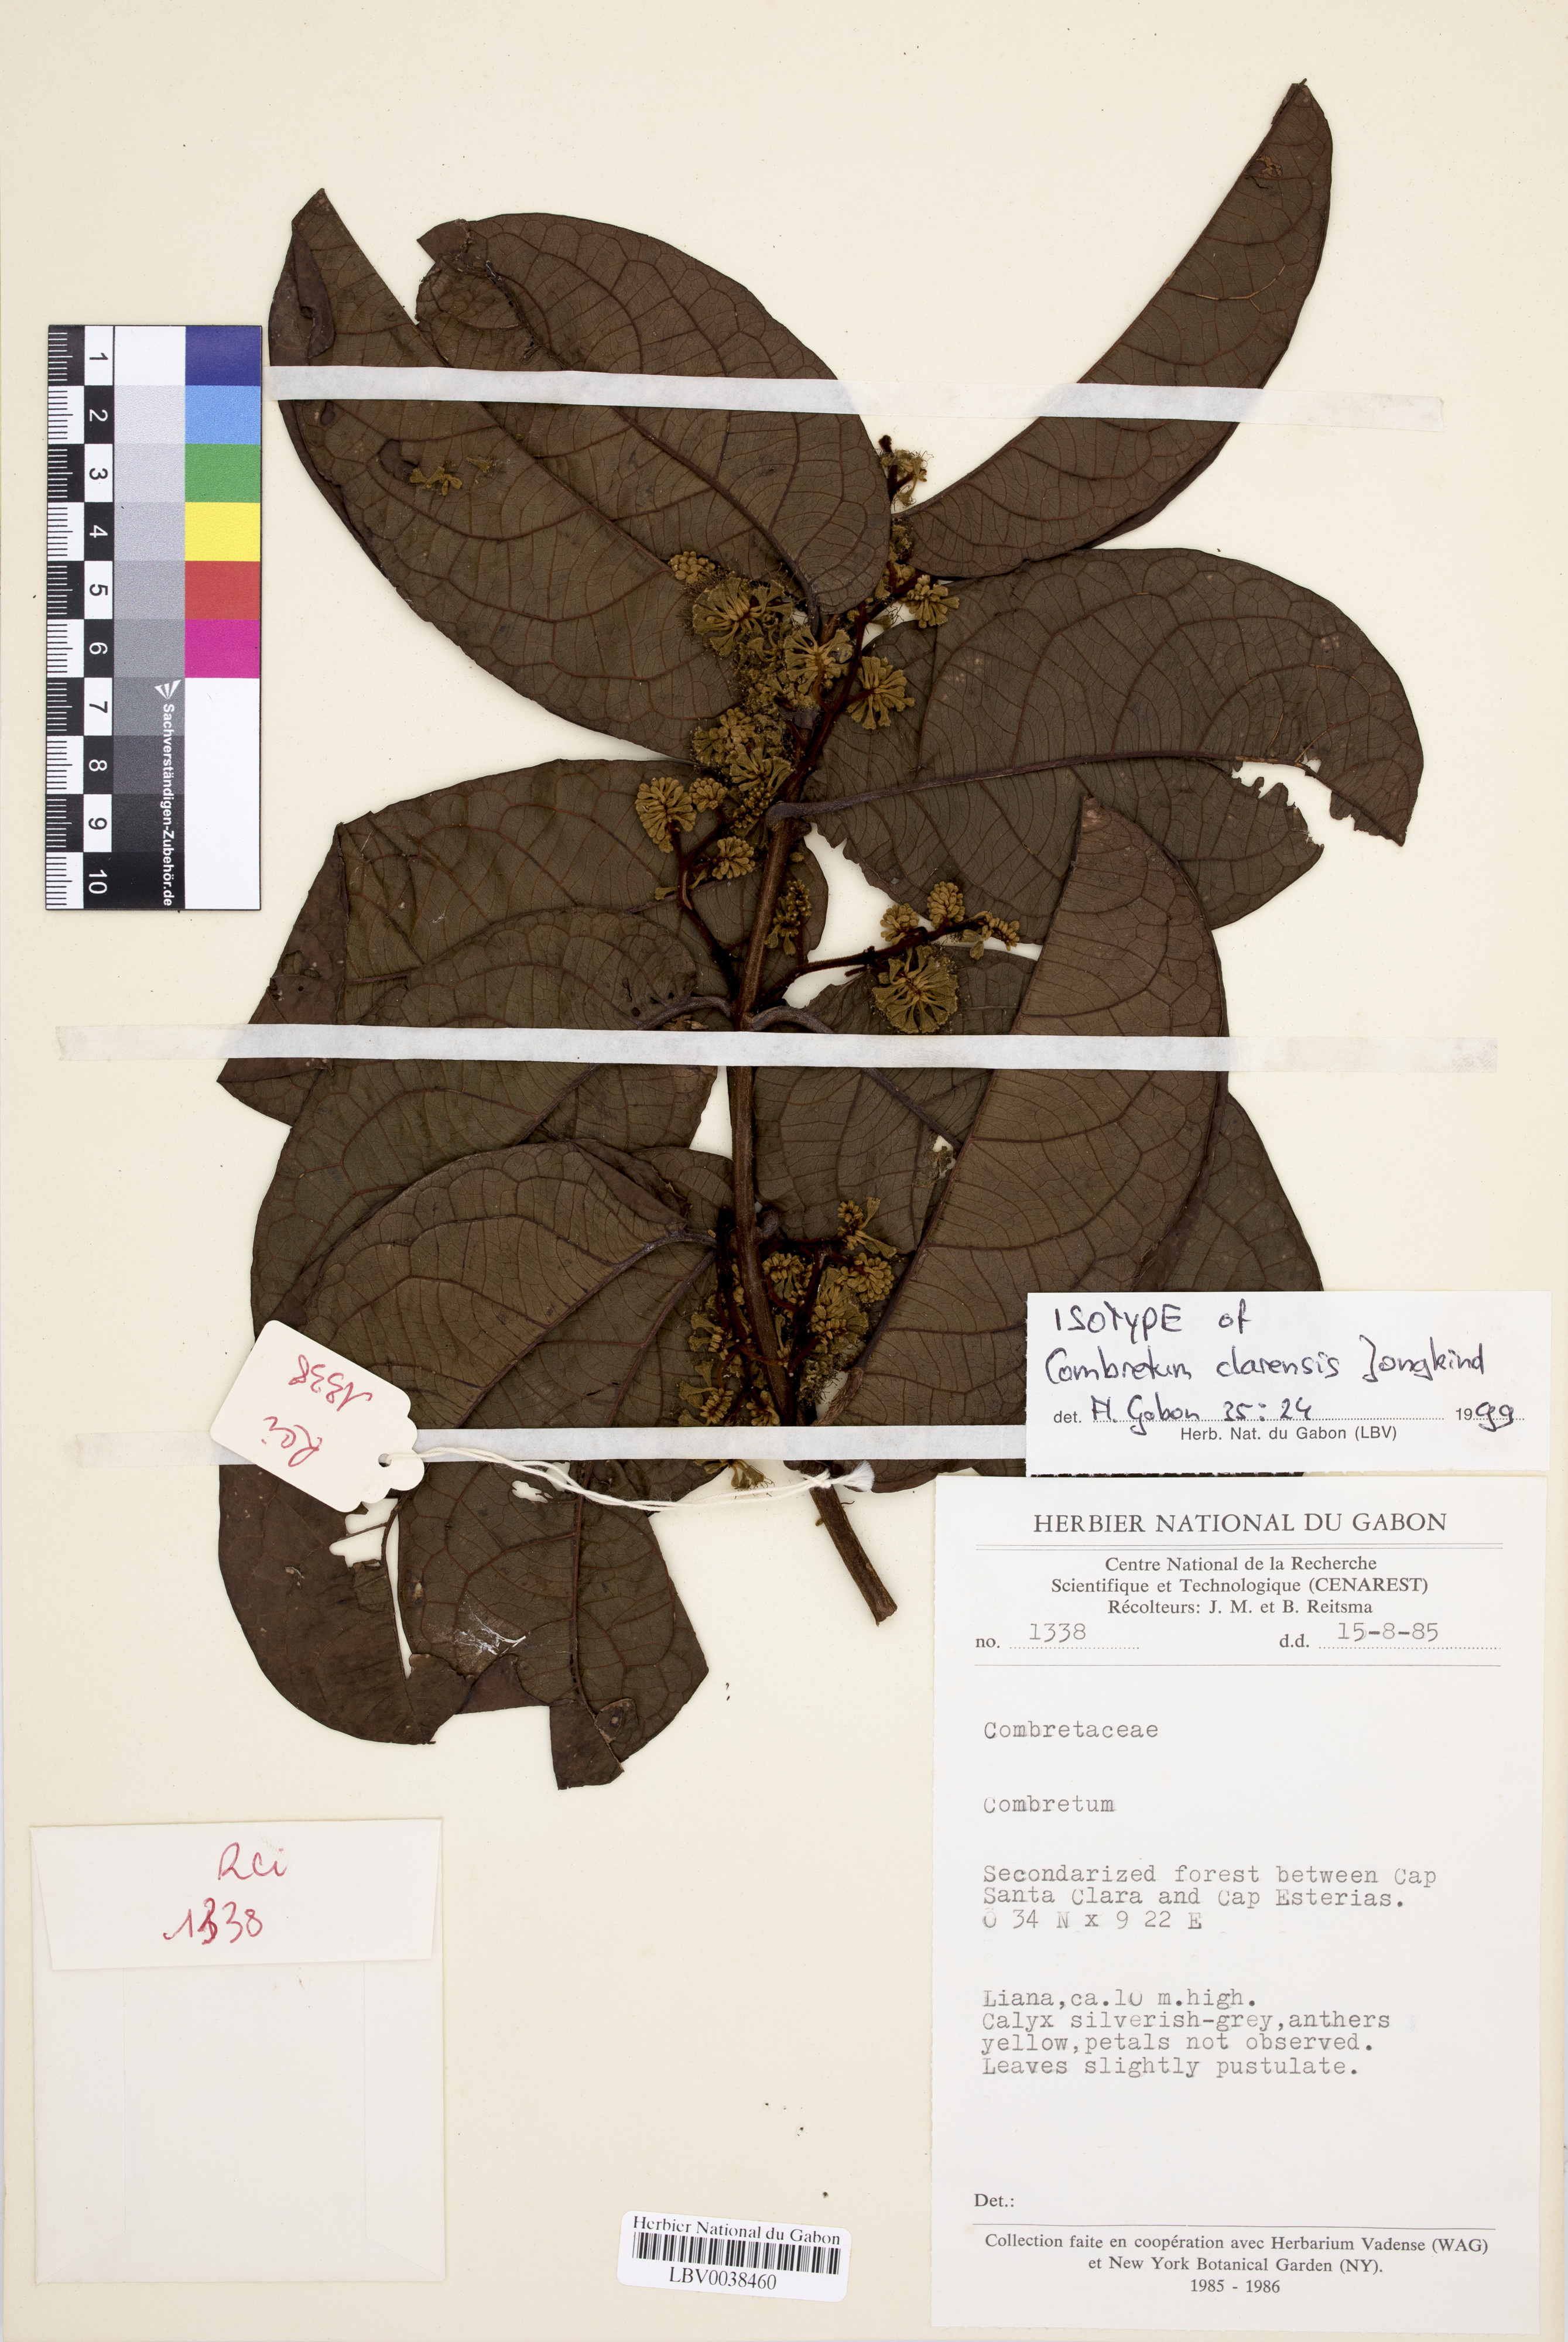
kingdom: Plantae
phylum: Tracheophyta
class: Magnoliopsida
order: Myrtales
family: Combretaceae
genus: Combretum
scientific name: Combretum clarense
